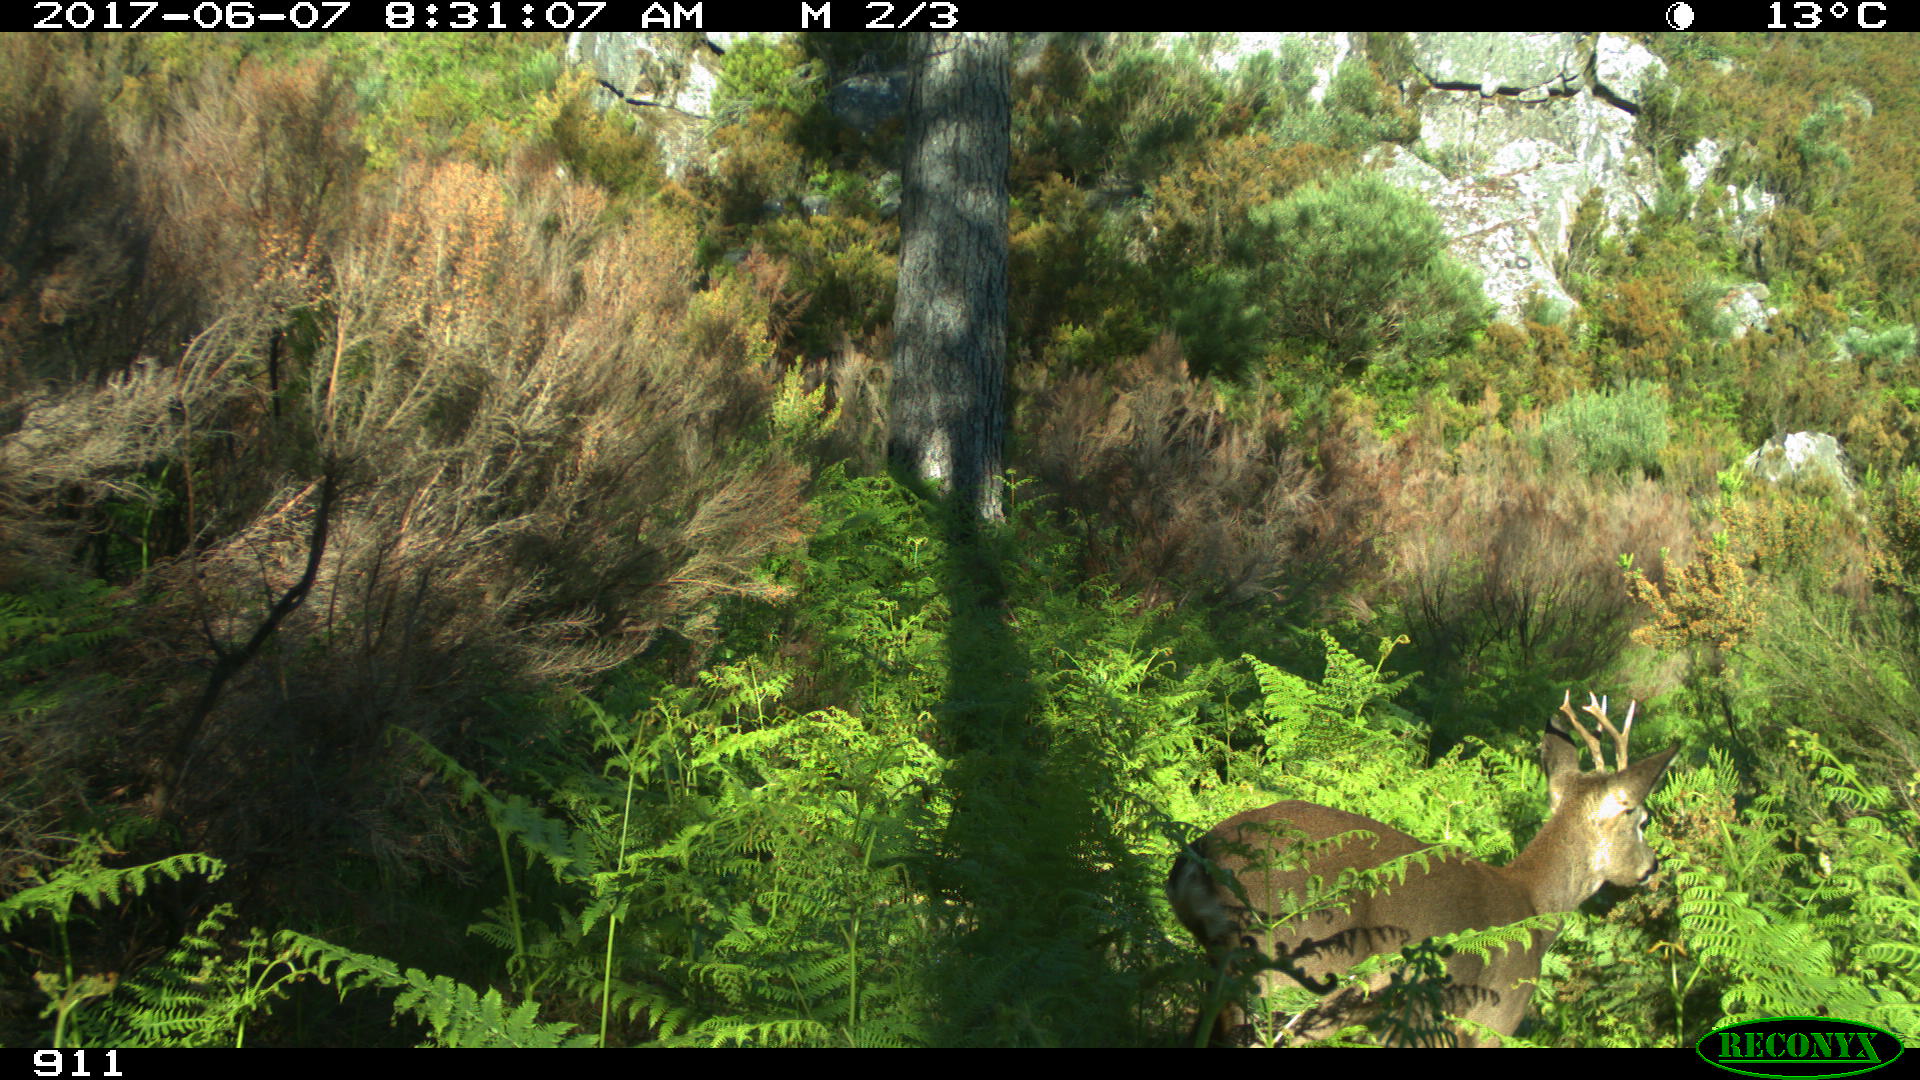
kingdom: Animalia
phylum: Chordata
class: Mammalia
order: Artiodactyla
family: Cervidae
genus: Capreolus
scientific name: Capreolus capreolus
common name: Western roe deer
